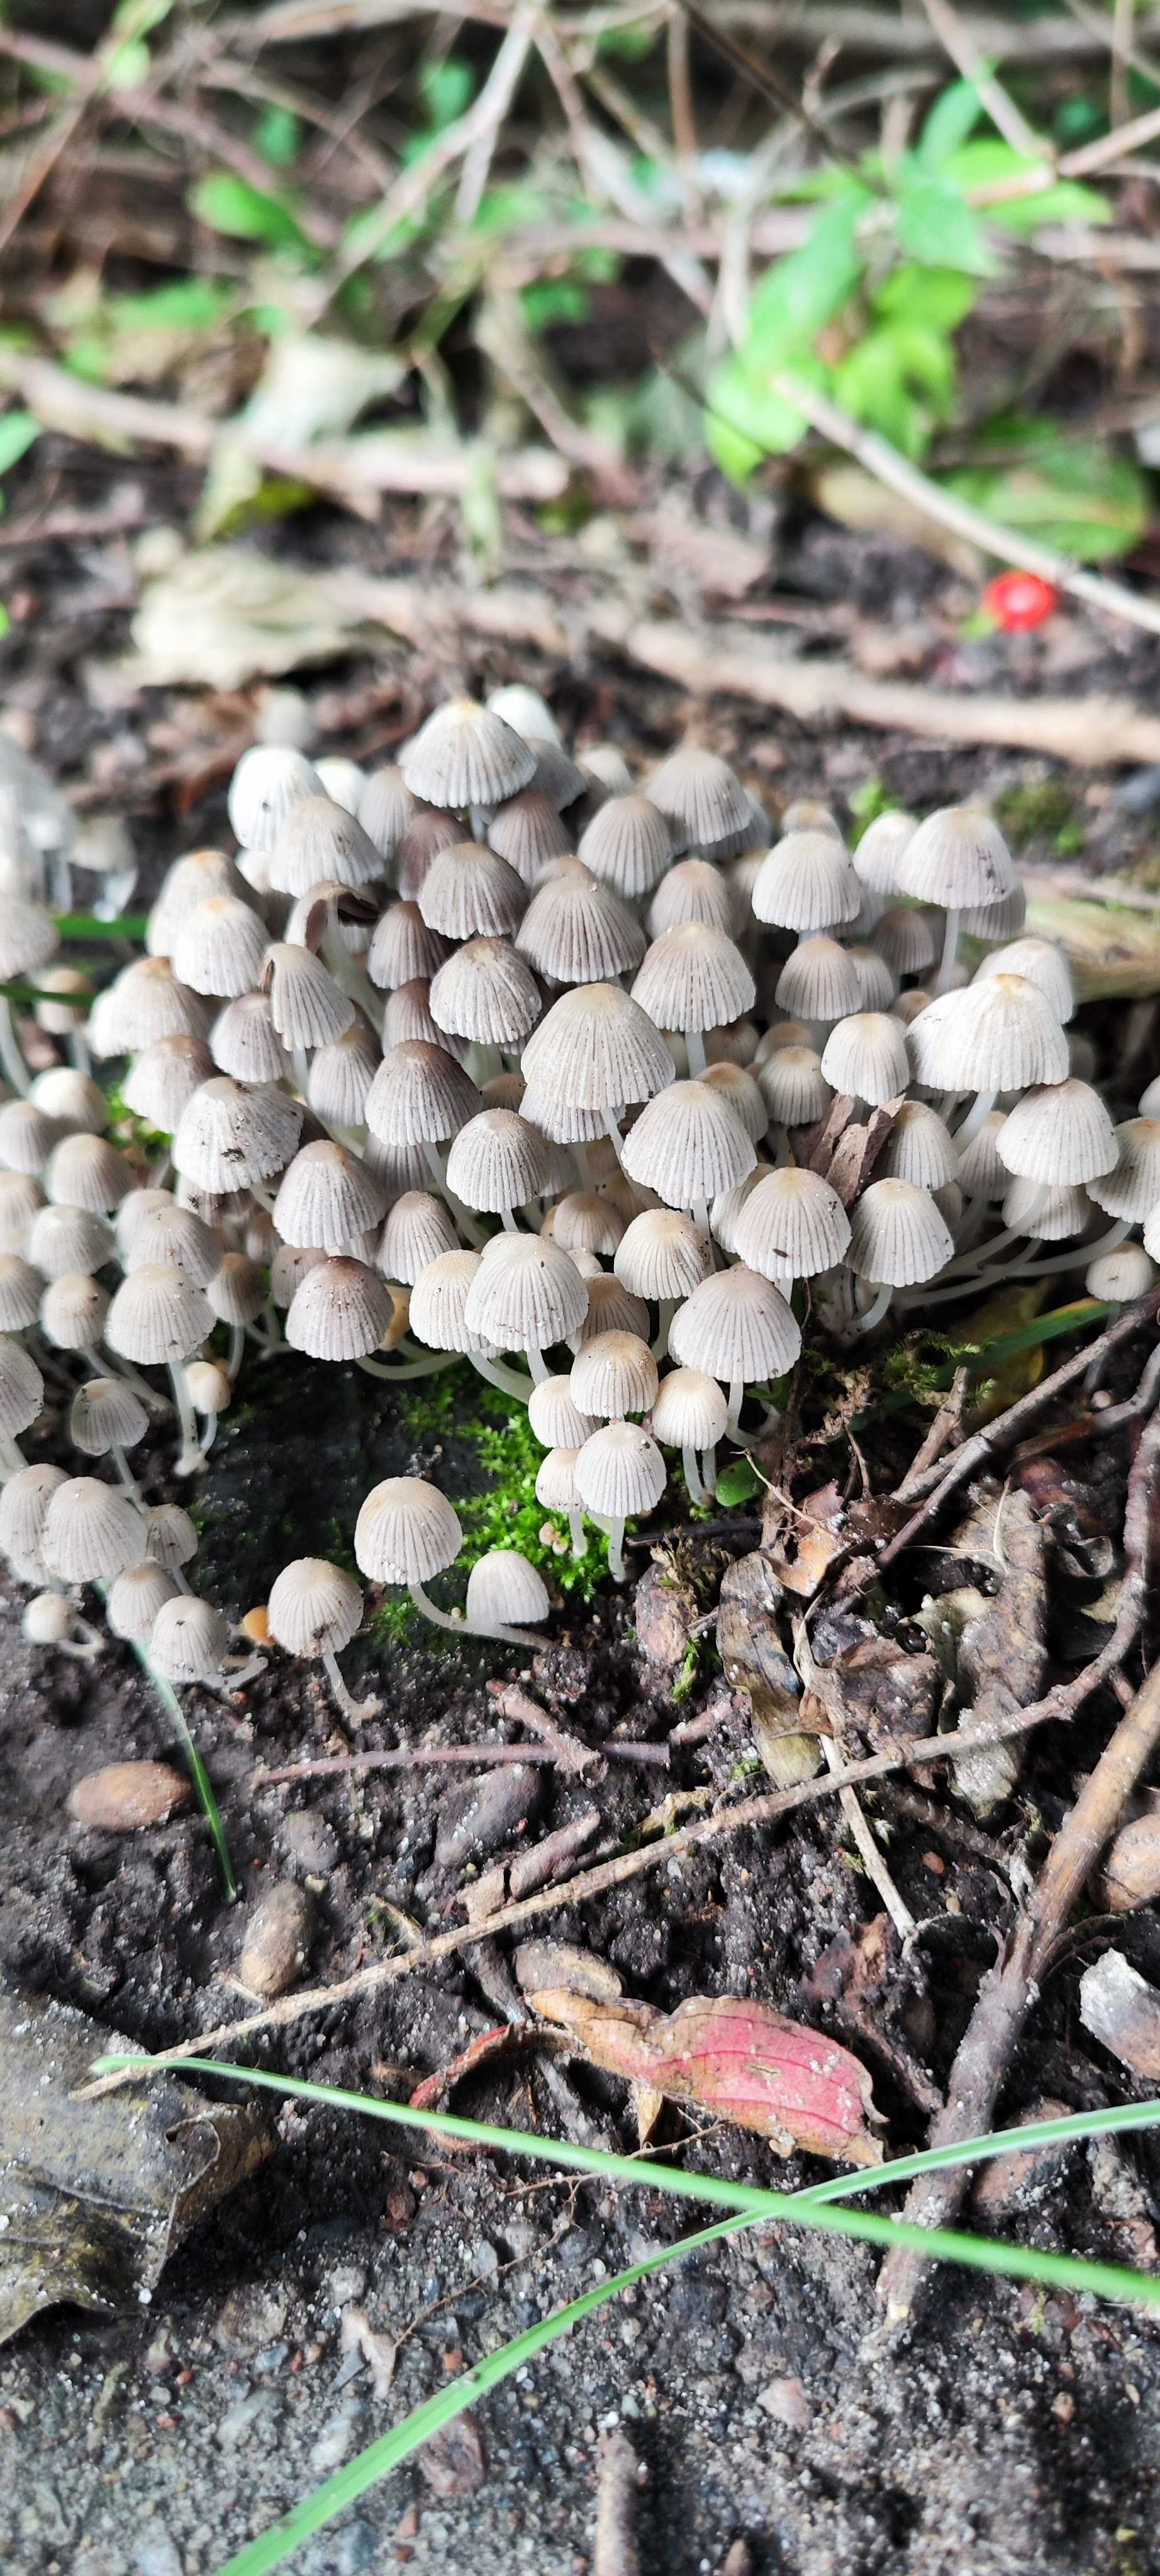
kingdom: Fungi
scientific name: Fungi
